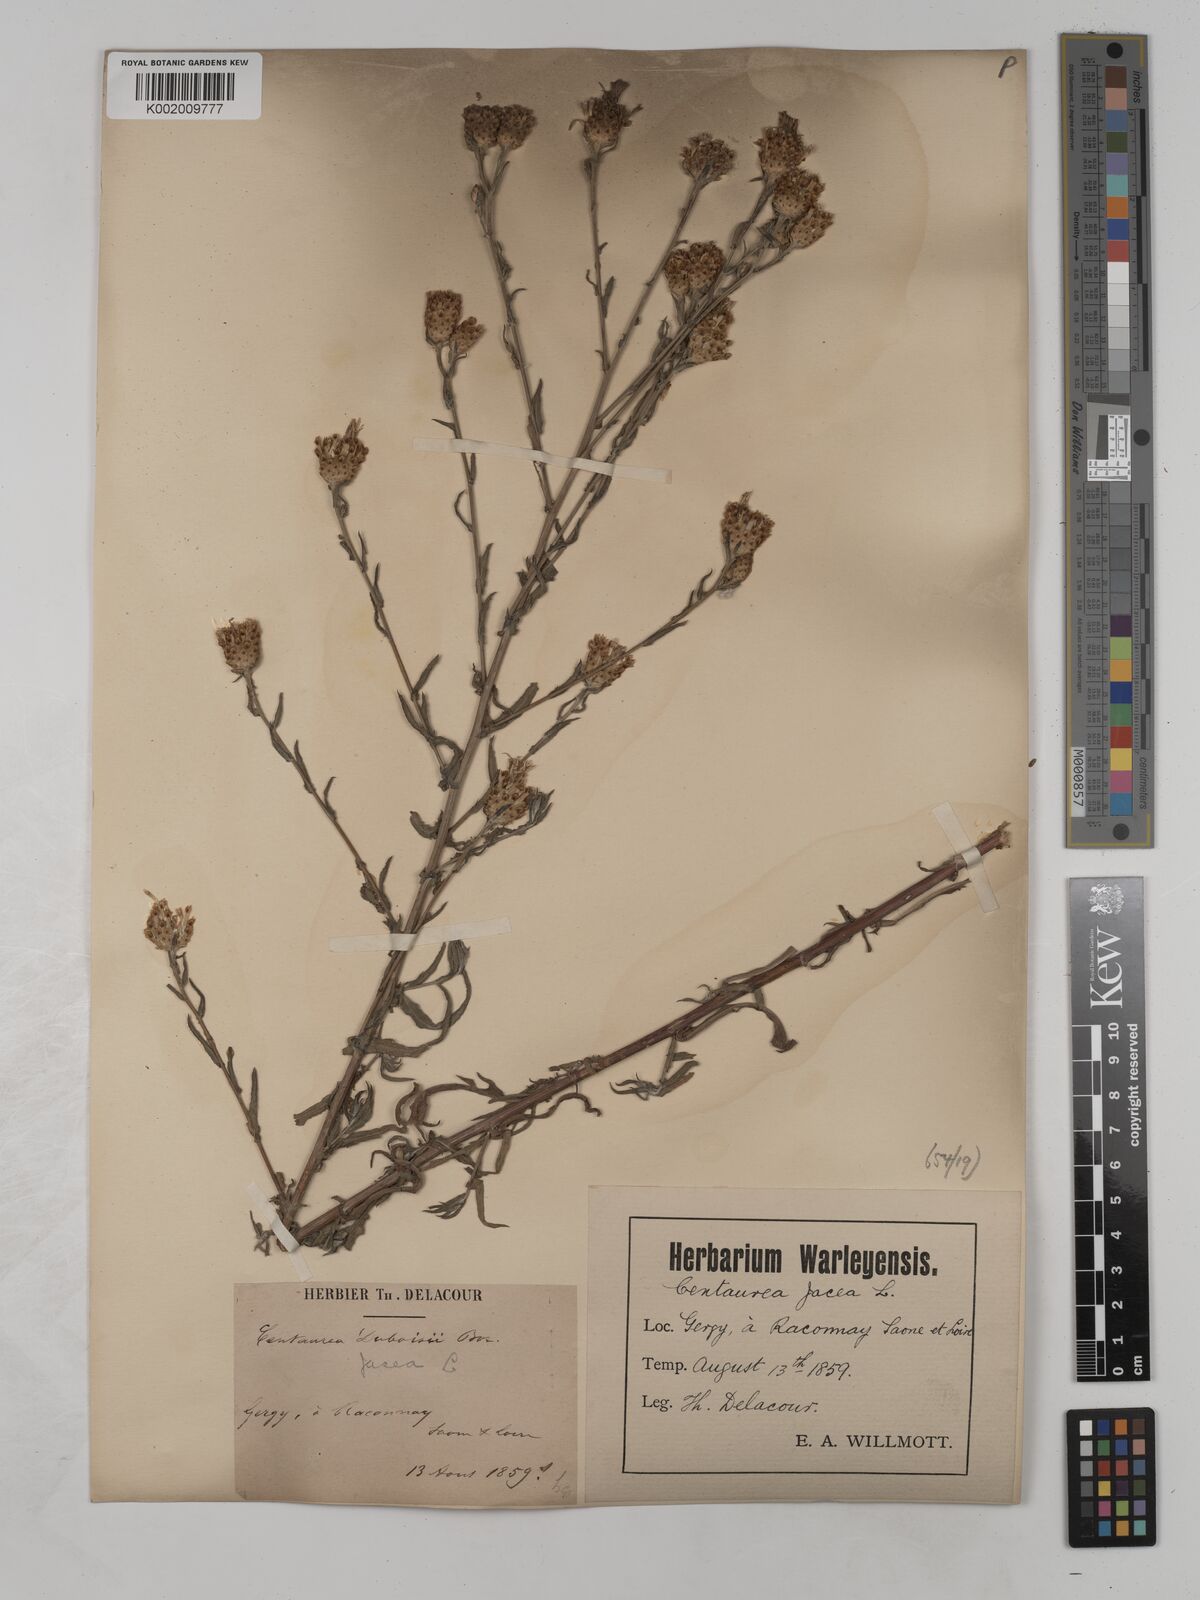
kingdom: Plantae
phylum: Tracheophyta
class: Magnoliopsida
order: Asterales
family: Asteraceae
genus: Centaurea
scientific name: Centaurea timbalii
